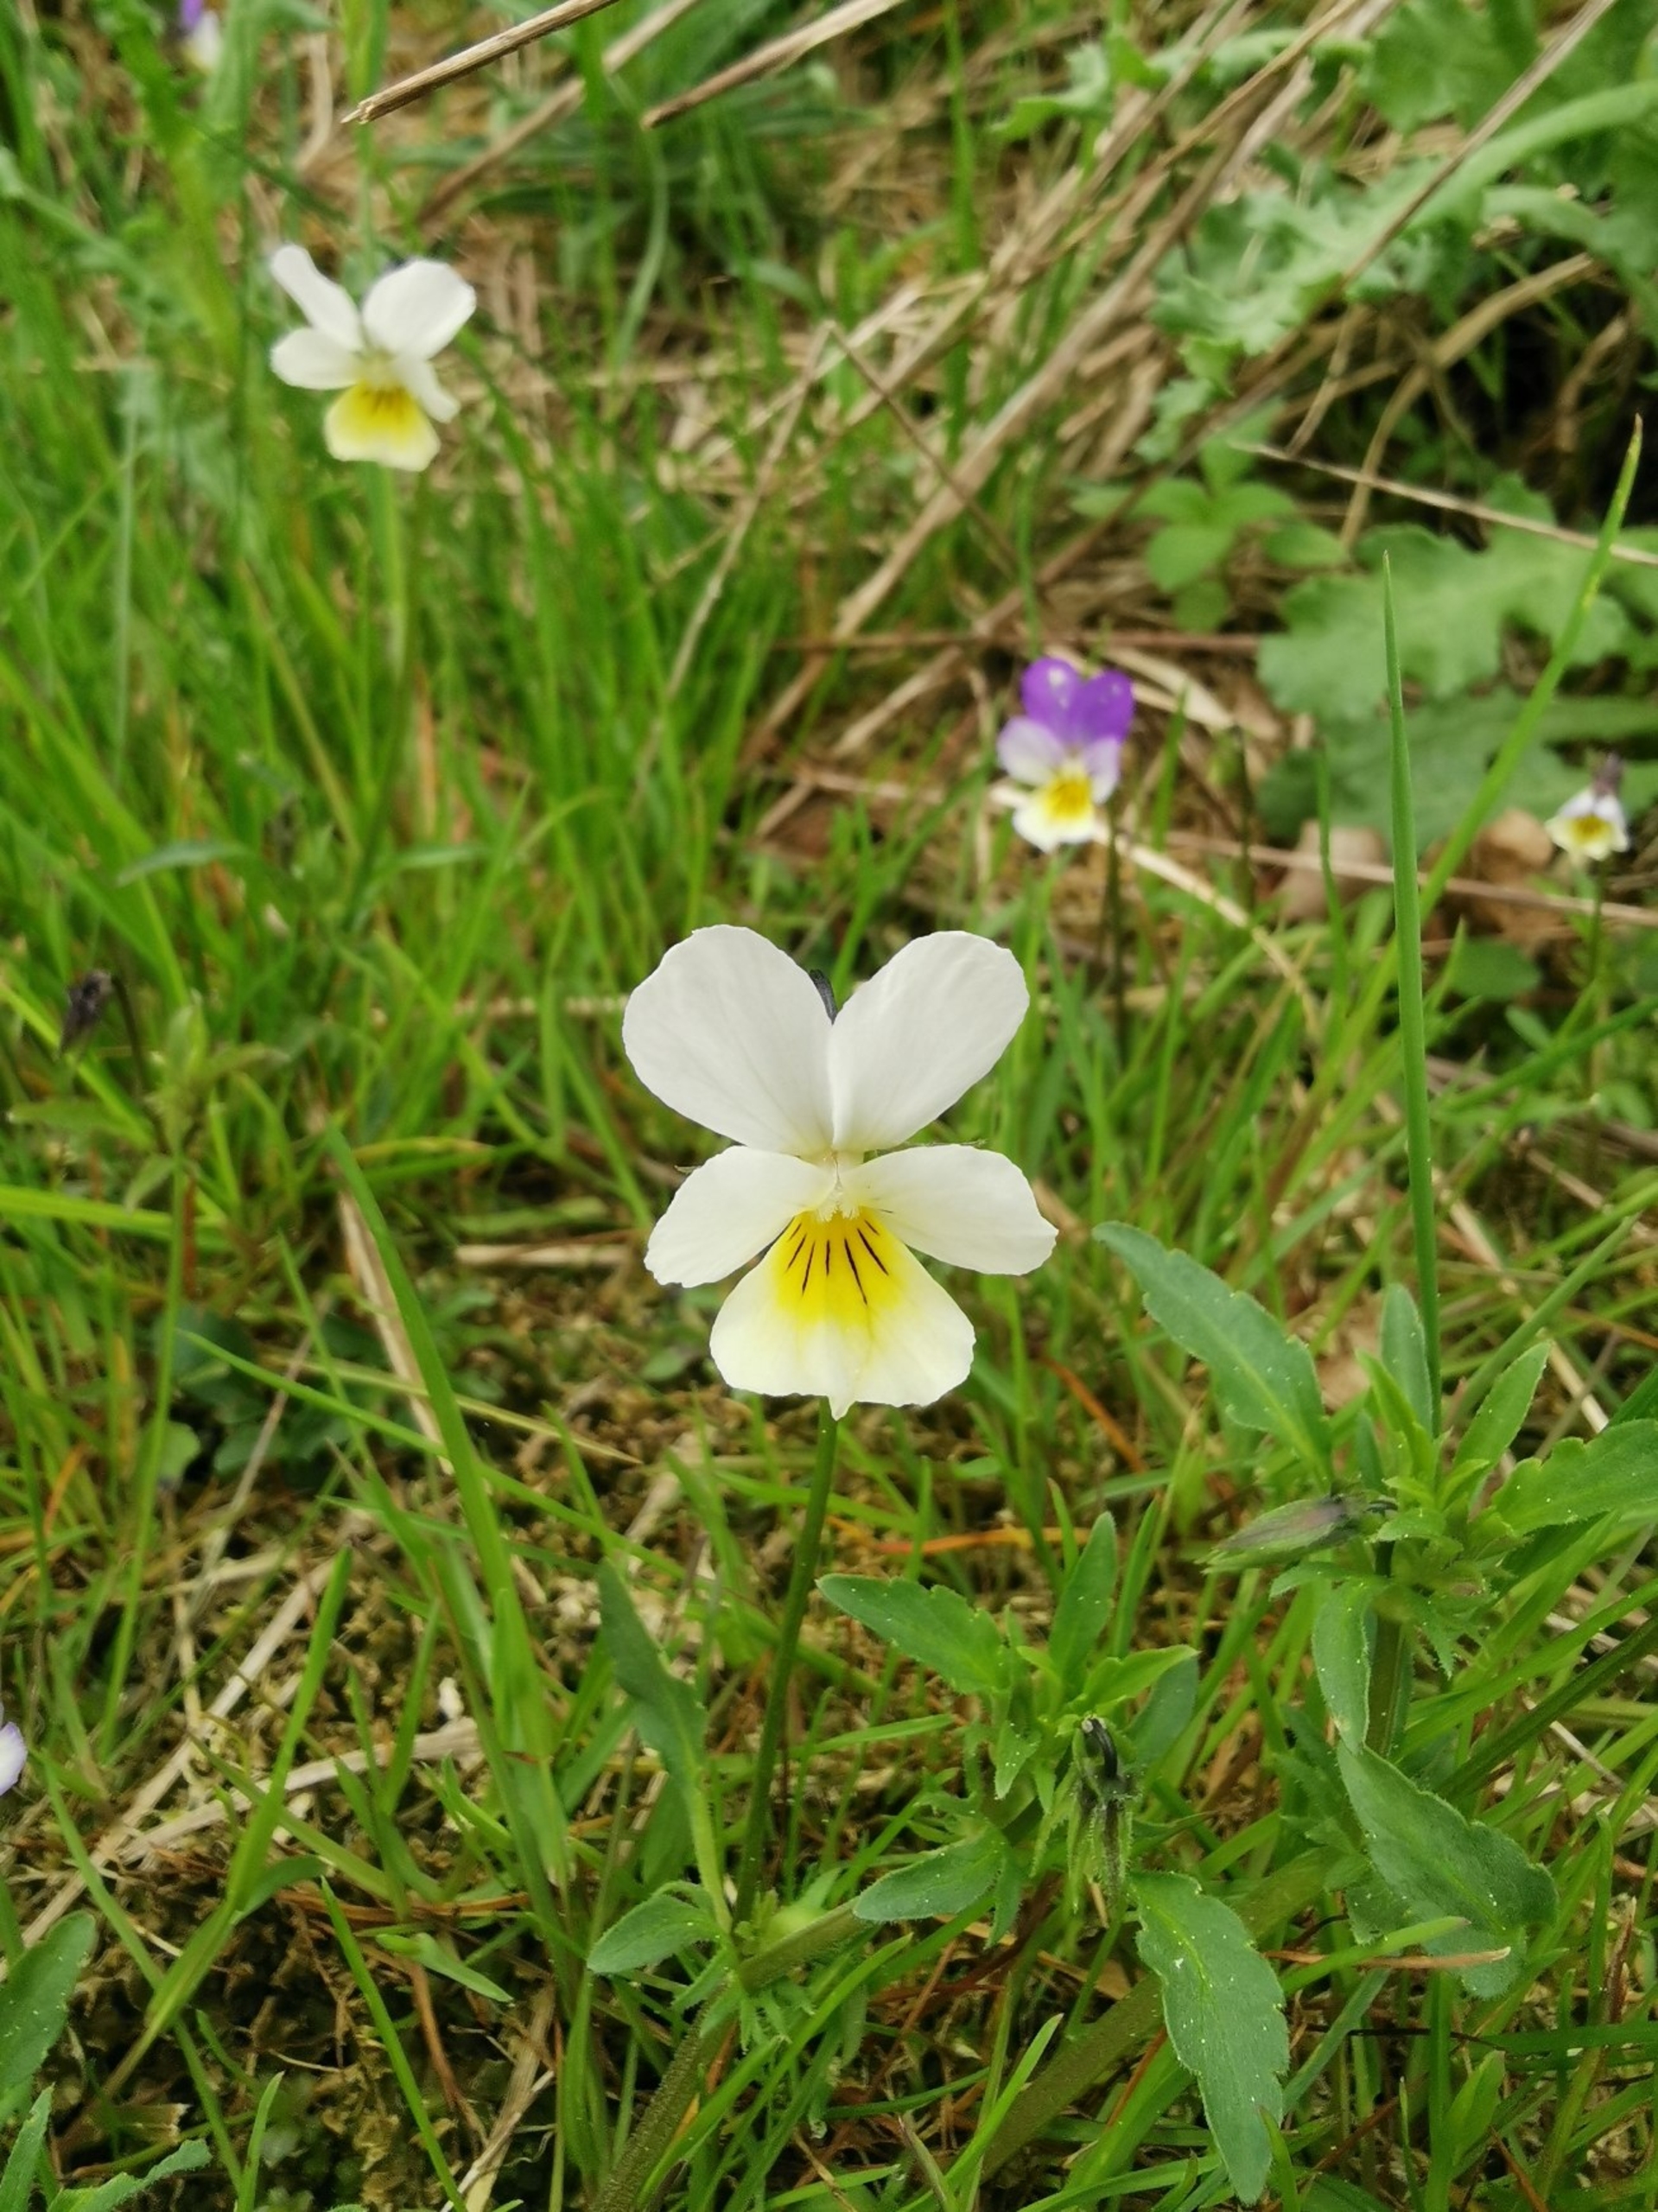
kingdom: Plantae
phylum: Tracheophyta
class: Magnoliopsida
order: Malpighiales
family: Violaceae
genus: Viola
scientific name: Viola arvensis
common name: Ager-stedmoderblomst
